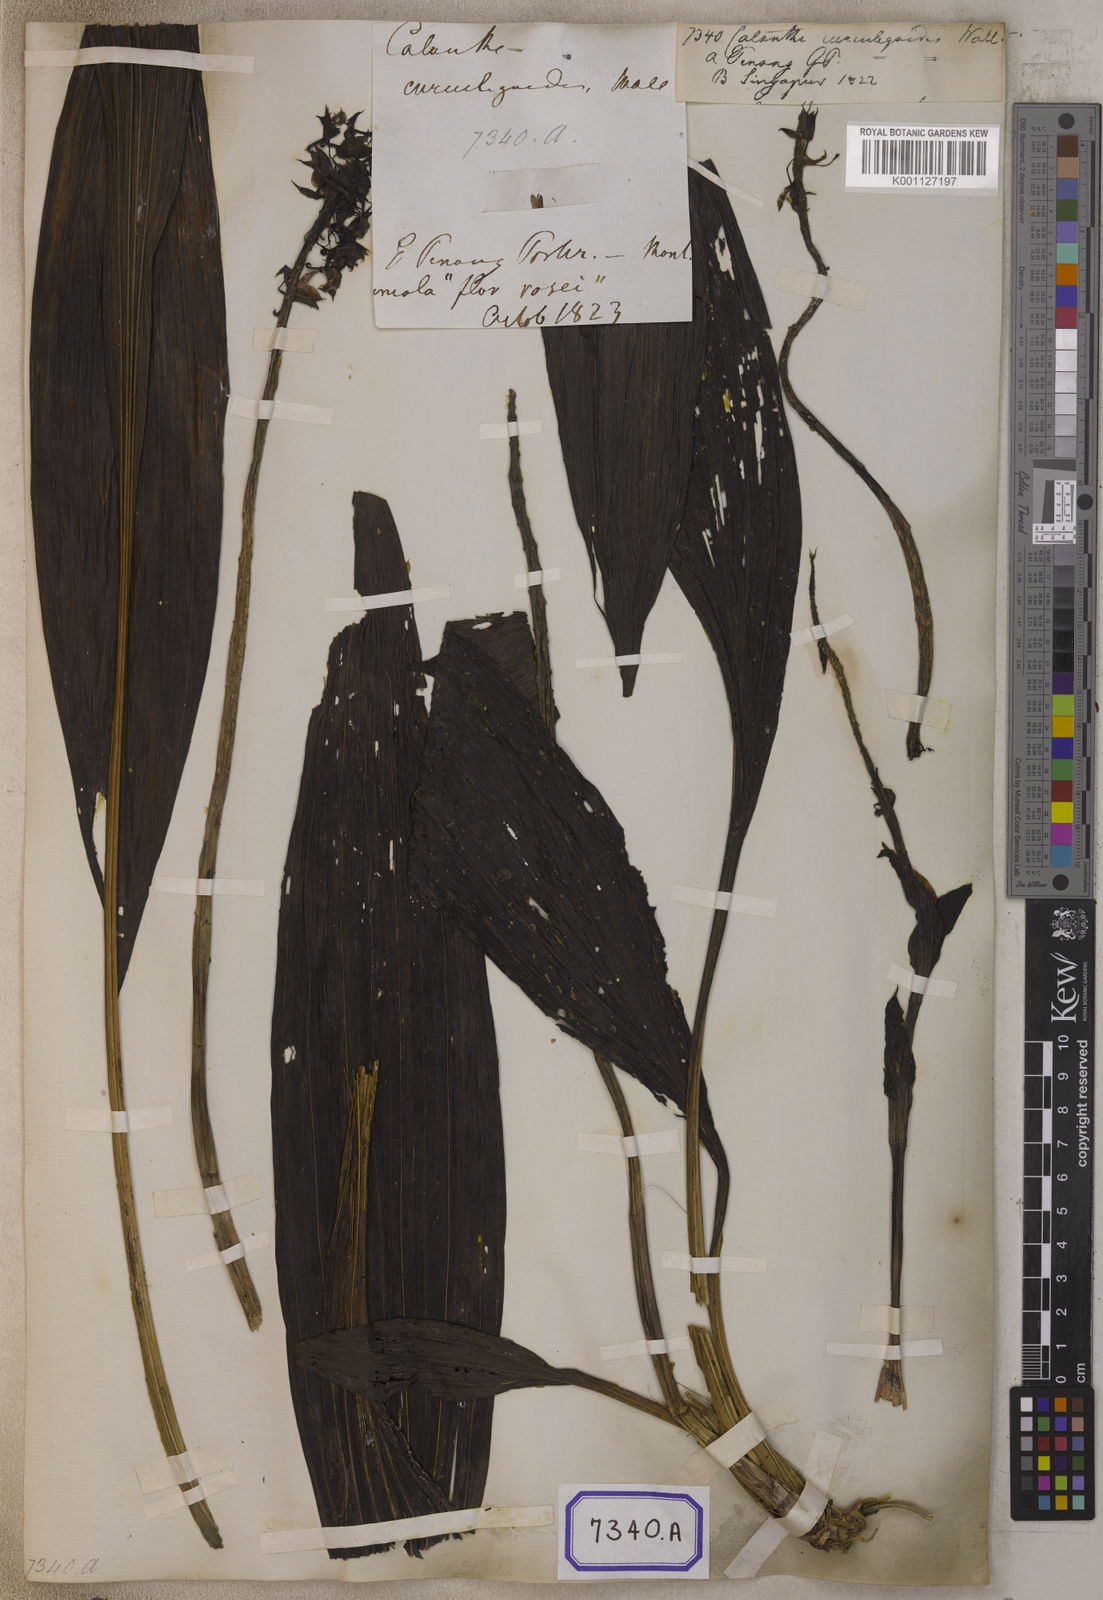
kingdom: Plantae
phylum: Tracheophyta
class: Liliopsida
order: Asparagales
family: Orchidaceae
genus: Calanthe
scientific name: Calanthe pulchra
